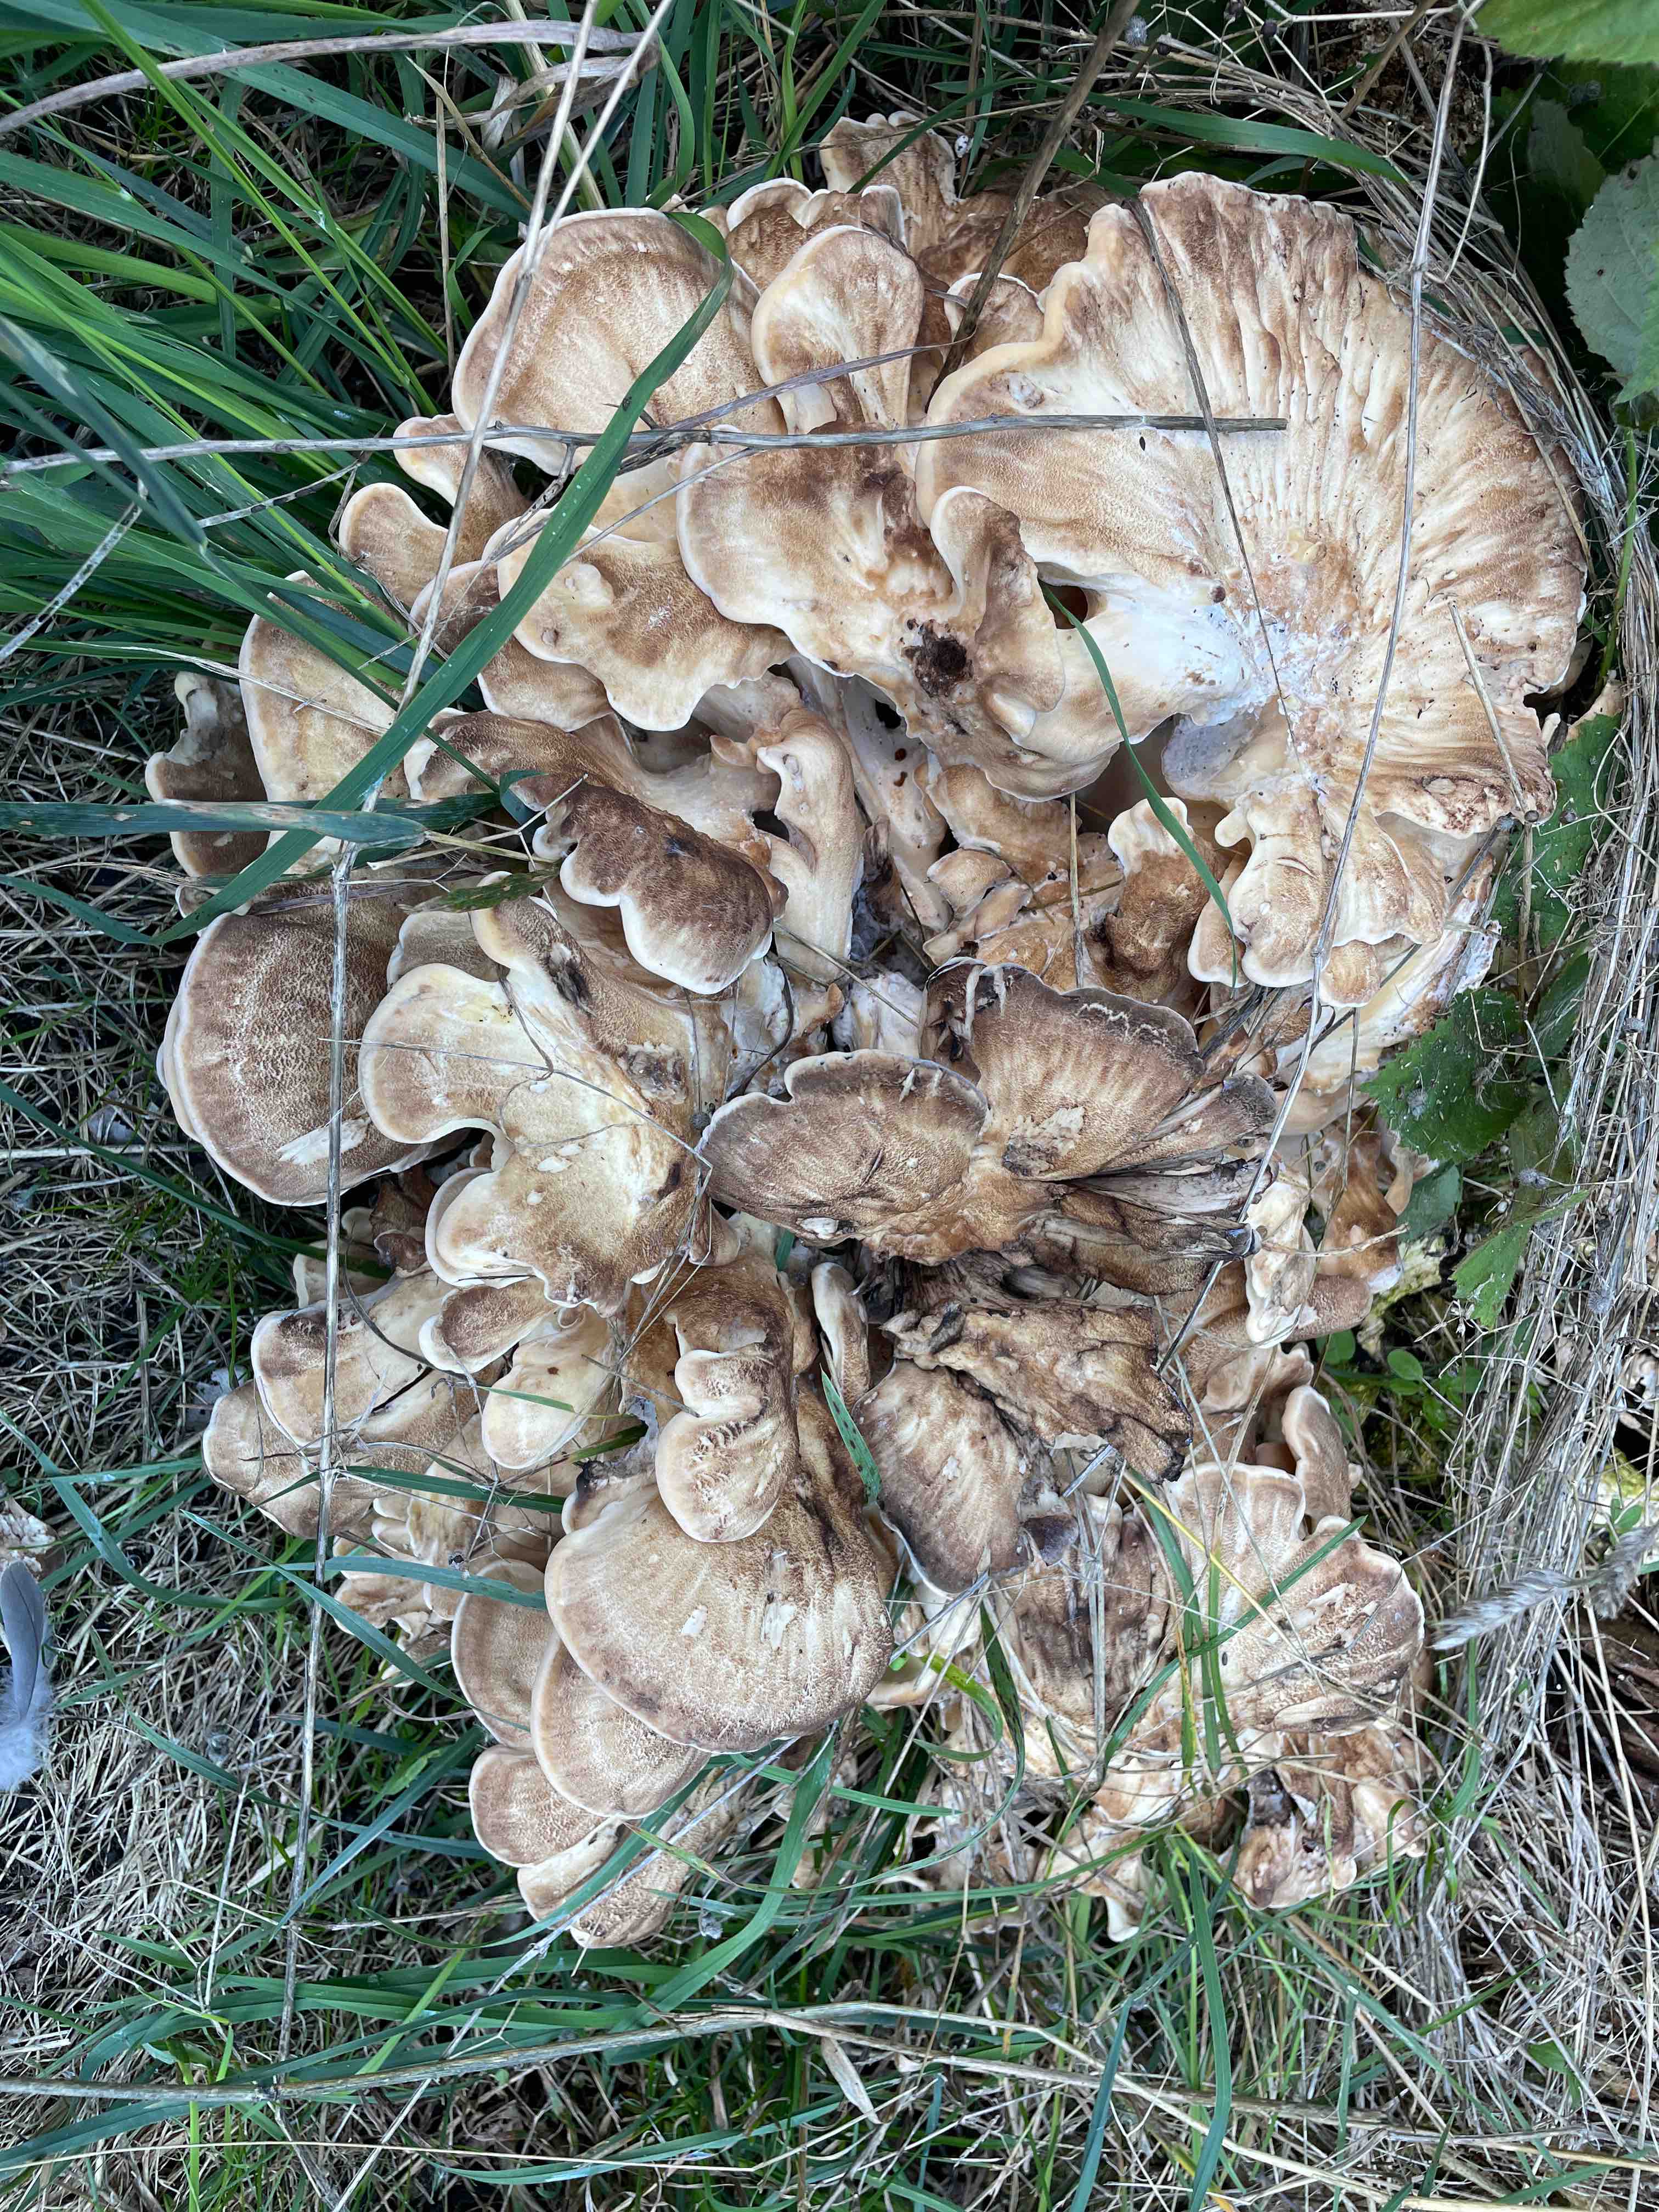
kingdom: Fungi
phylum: Basidiomycota
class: Agaricomycetes
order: Polyporales
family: Meripilaceae
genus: Meripilus
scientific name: Meripilus giganteus
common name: kæmpeporesvamp
